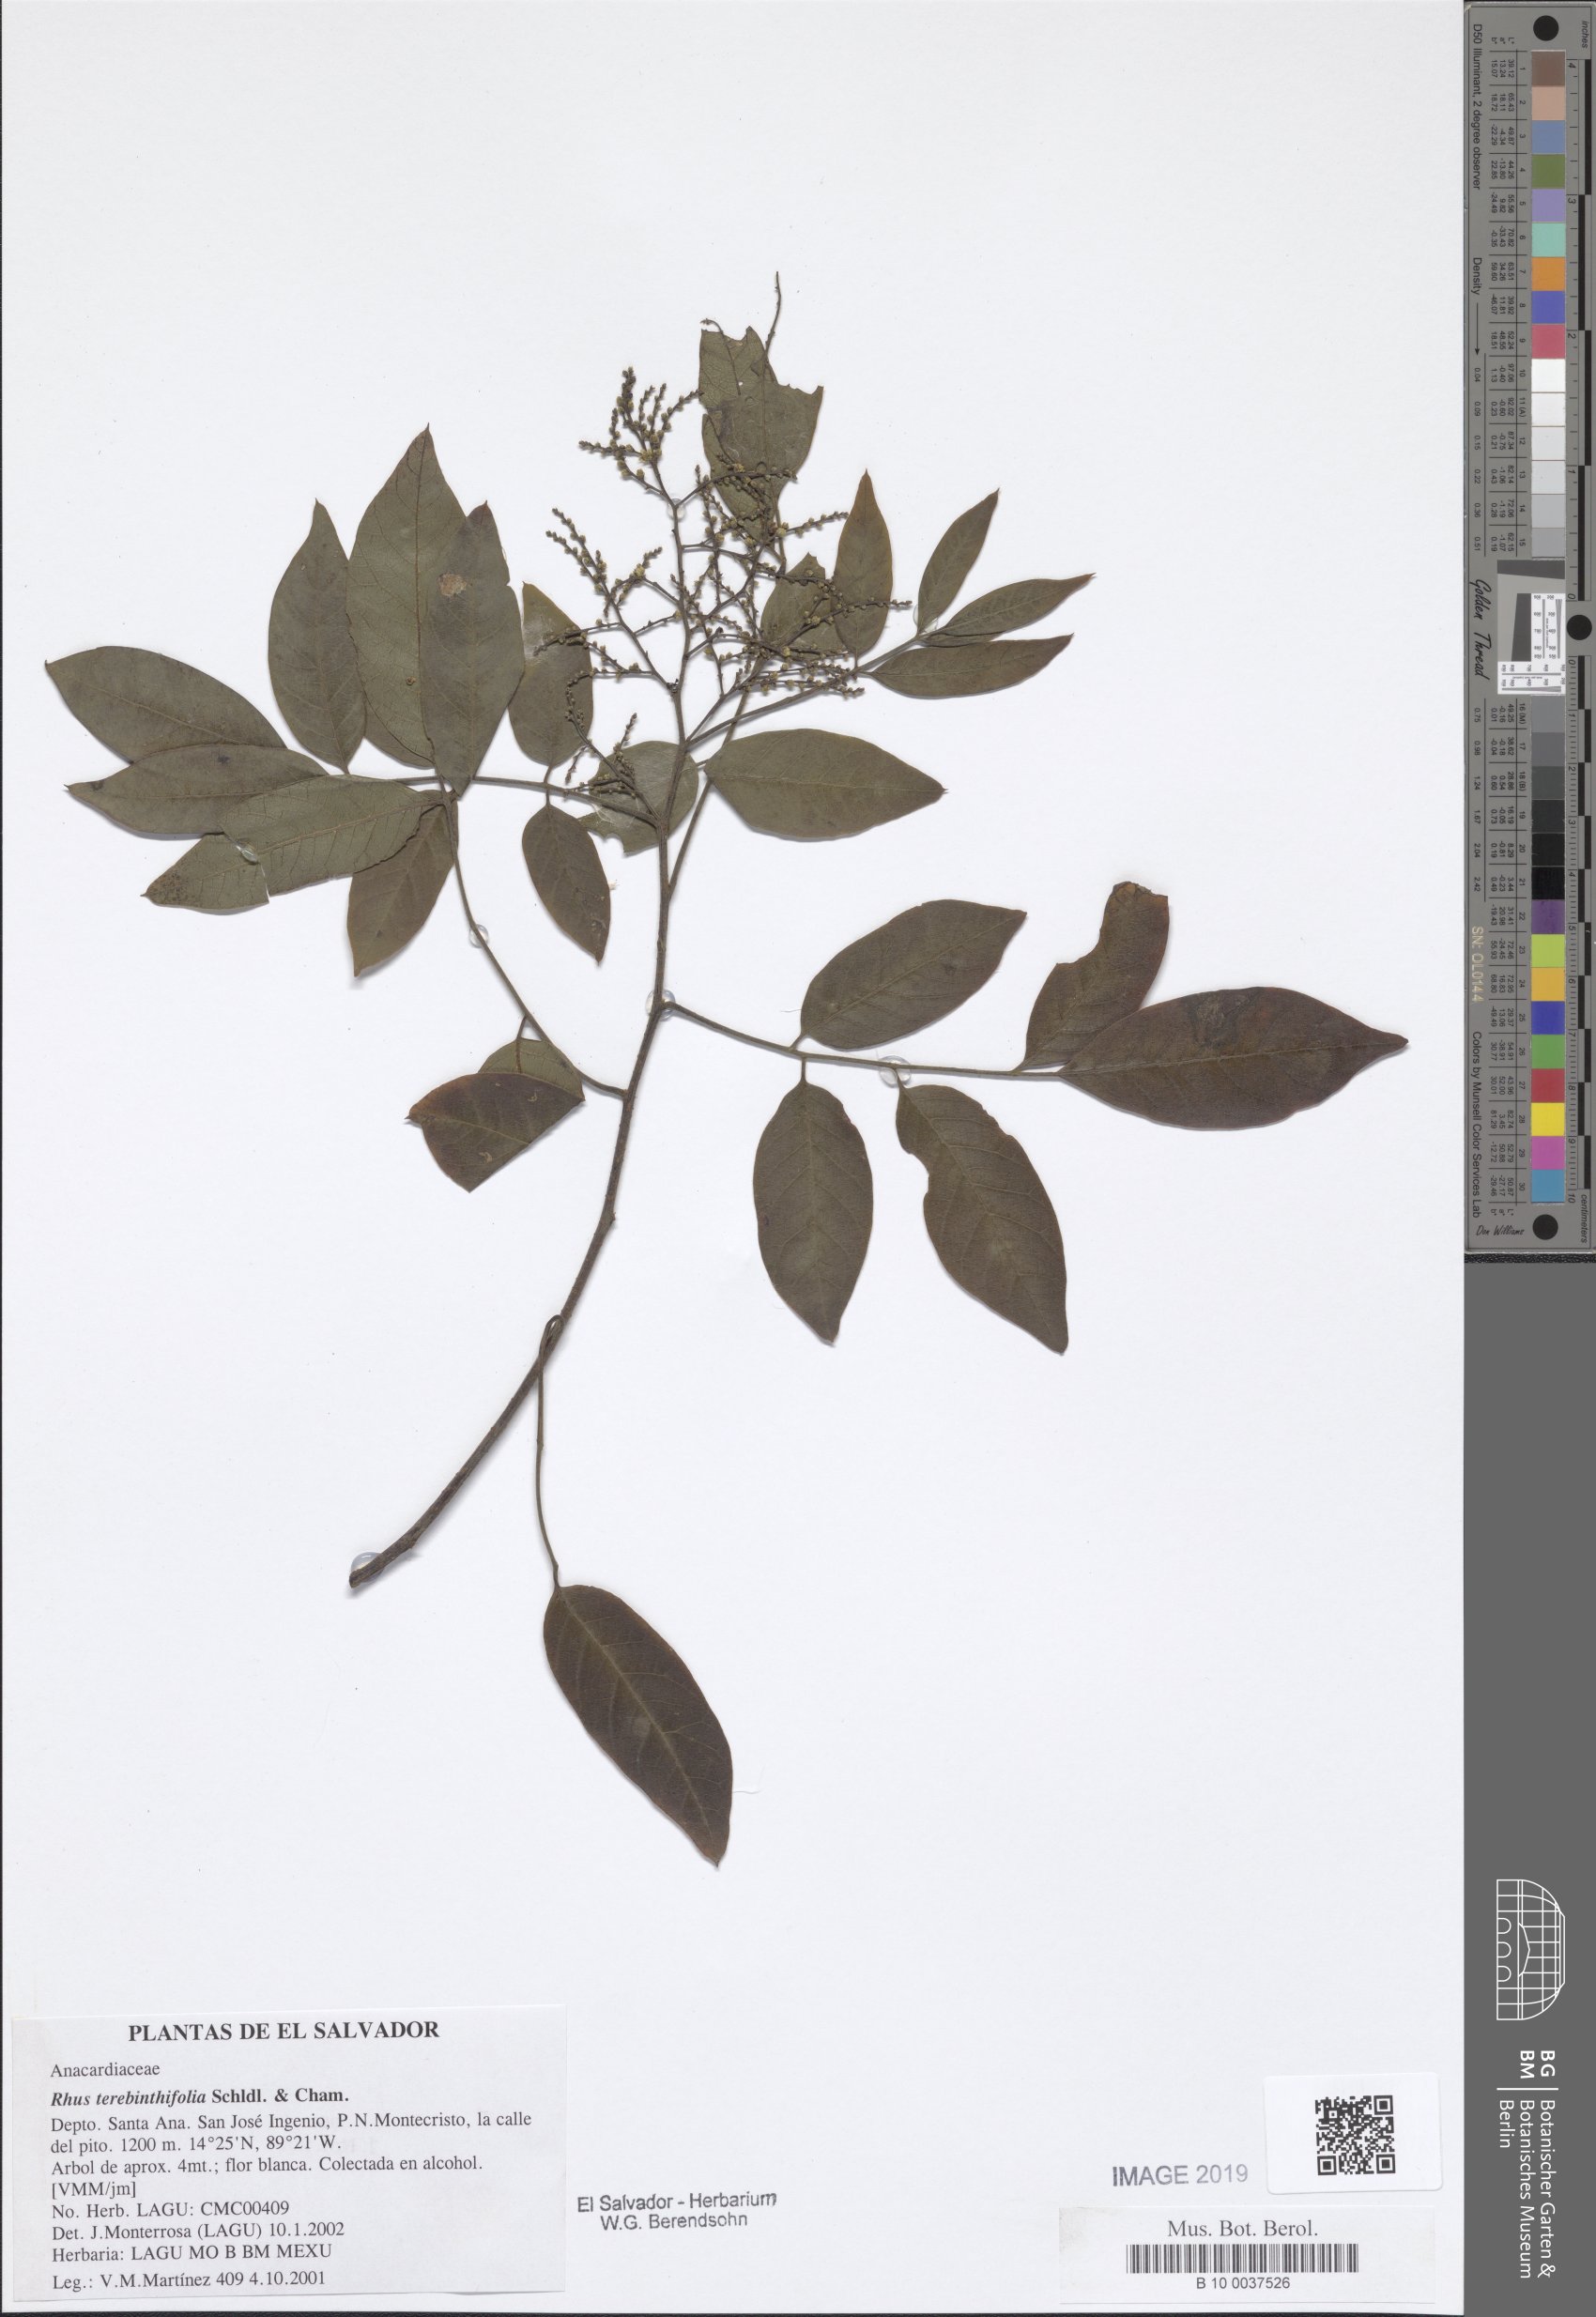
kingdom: Plantae
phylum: Tracheophyta
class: Magnoliopsida
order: Sapindales
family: Anacardiaceae
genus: Rhus
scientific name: Rhus terebinthifolia
